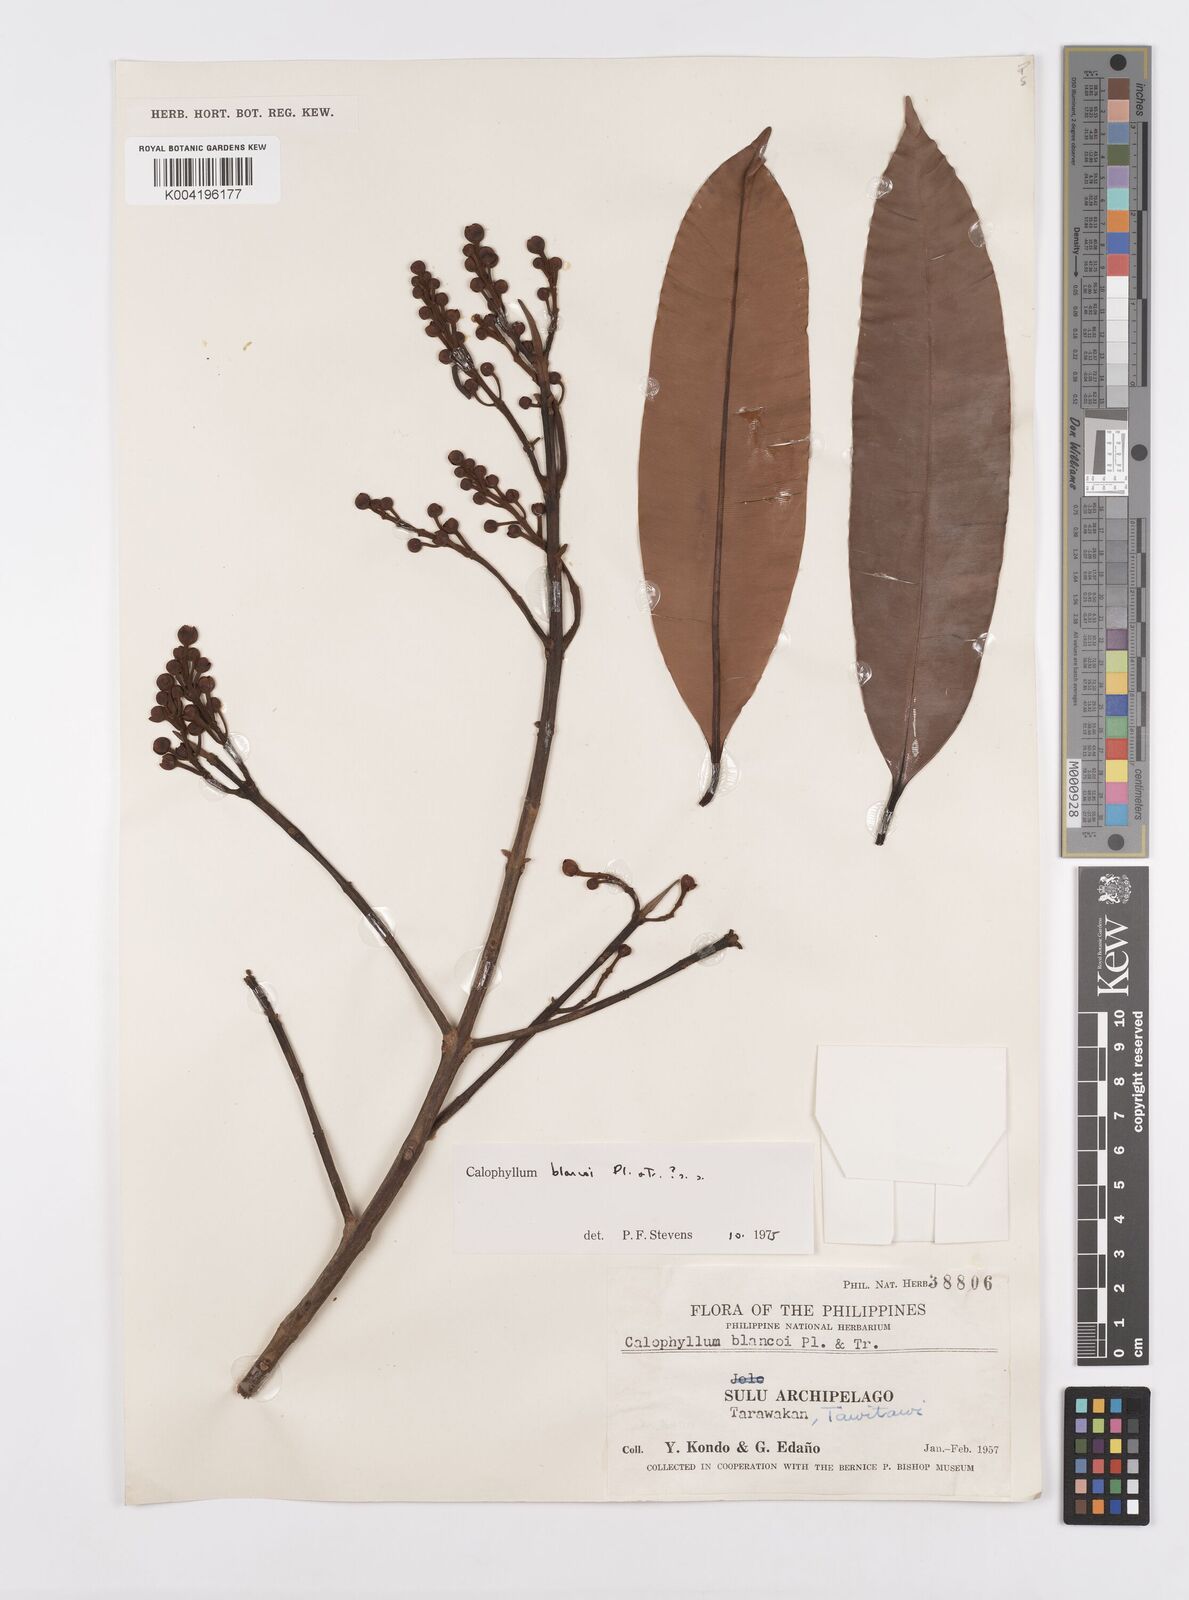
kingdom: Plantae
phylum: Tracheophyta
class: Magnoliopsida
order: Malpighiales
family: Calophyllaceae
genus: Calophyllum
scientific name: Calophyllum blancoi
